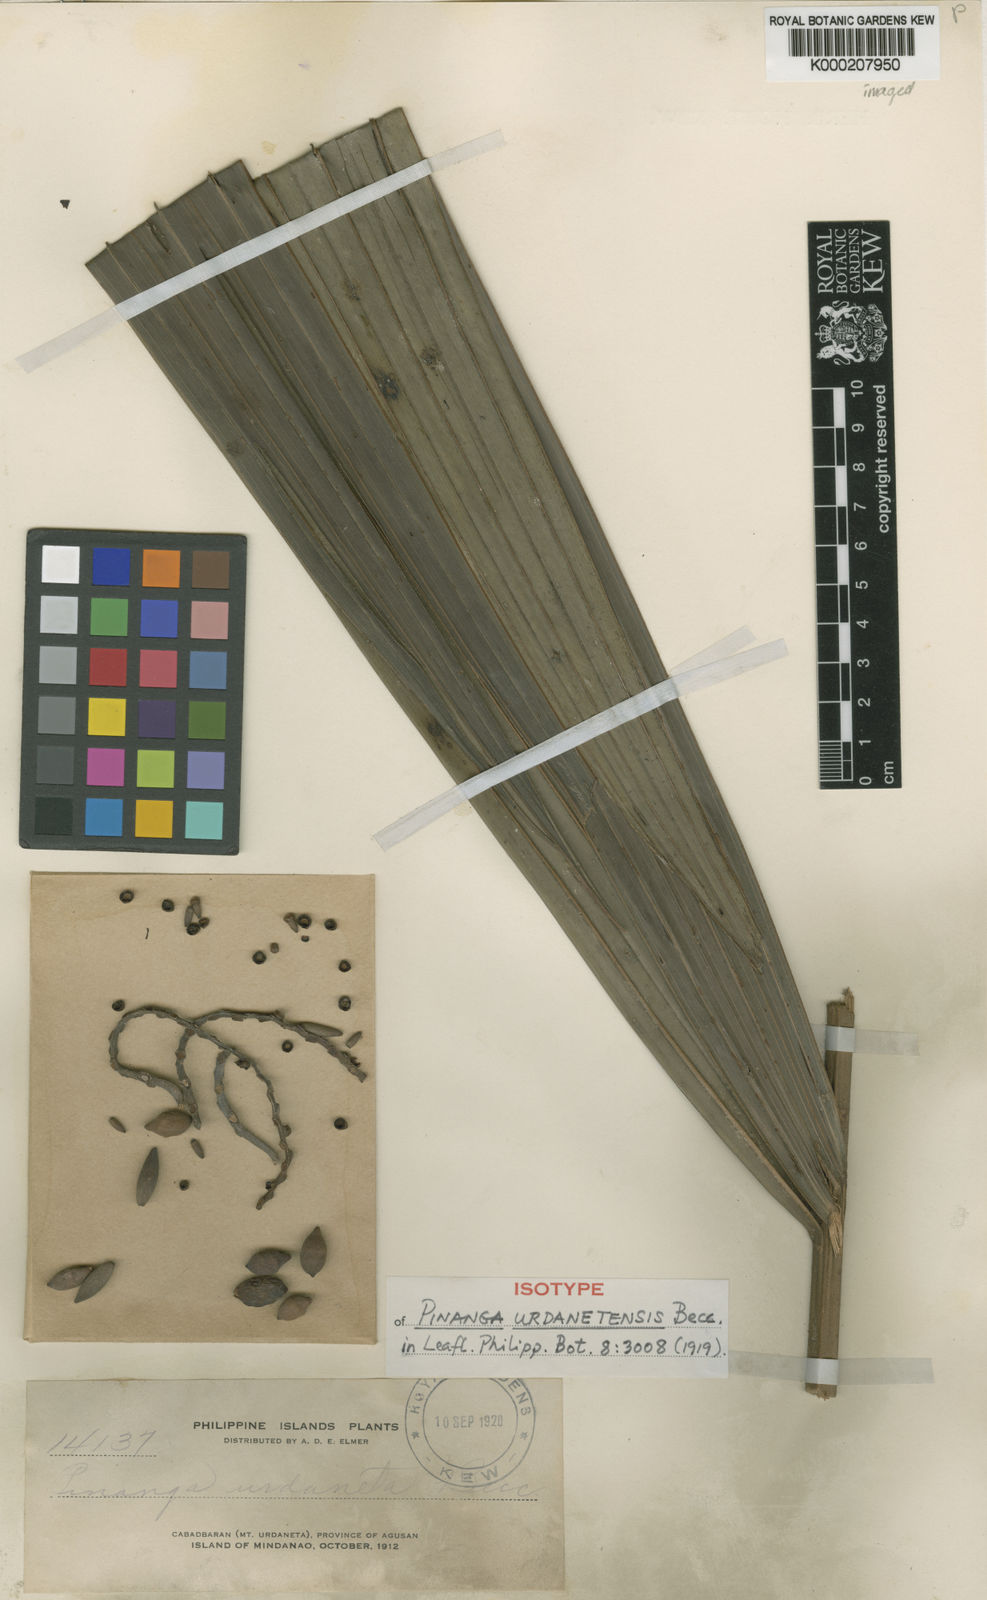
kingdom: Plantae
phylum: Tracheophyta
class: Liliopsida
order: Arecales
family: Arecaceae
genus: Pinanga
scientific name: Pinanga urdanetensis
